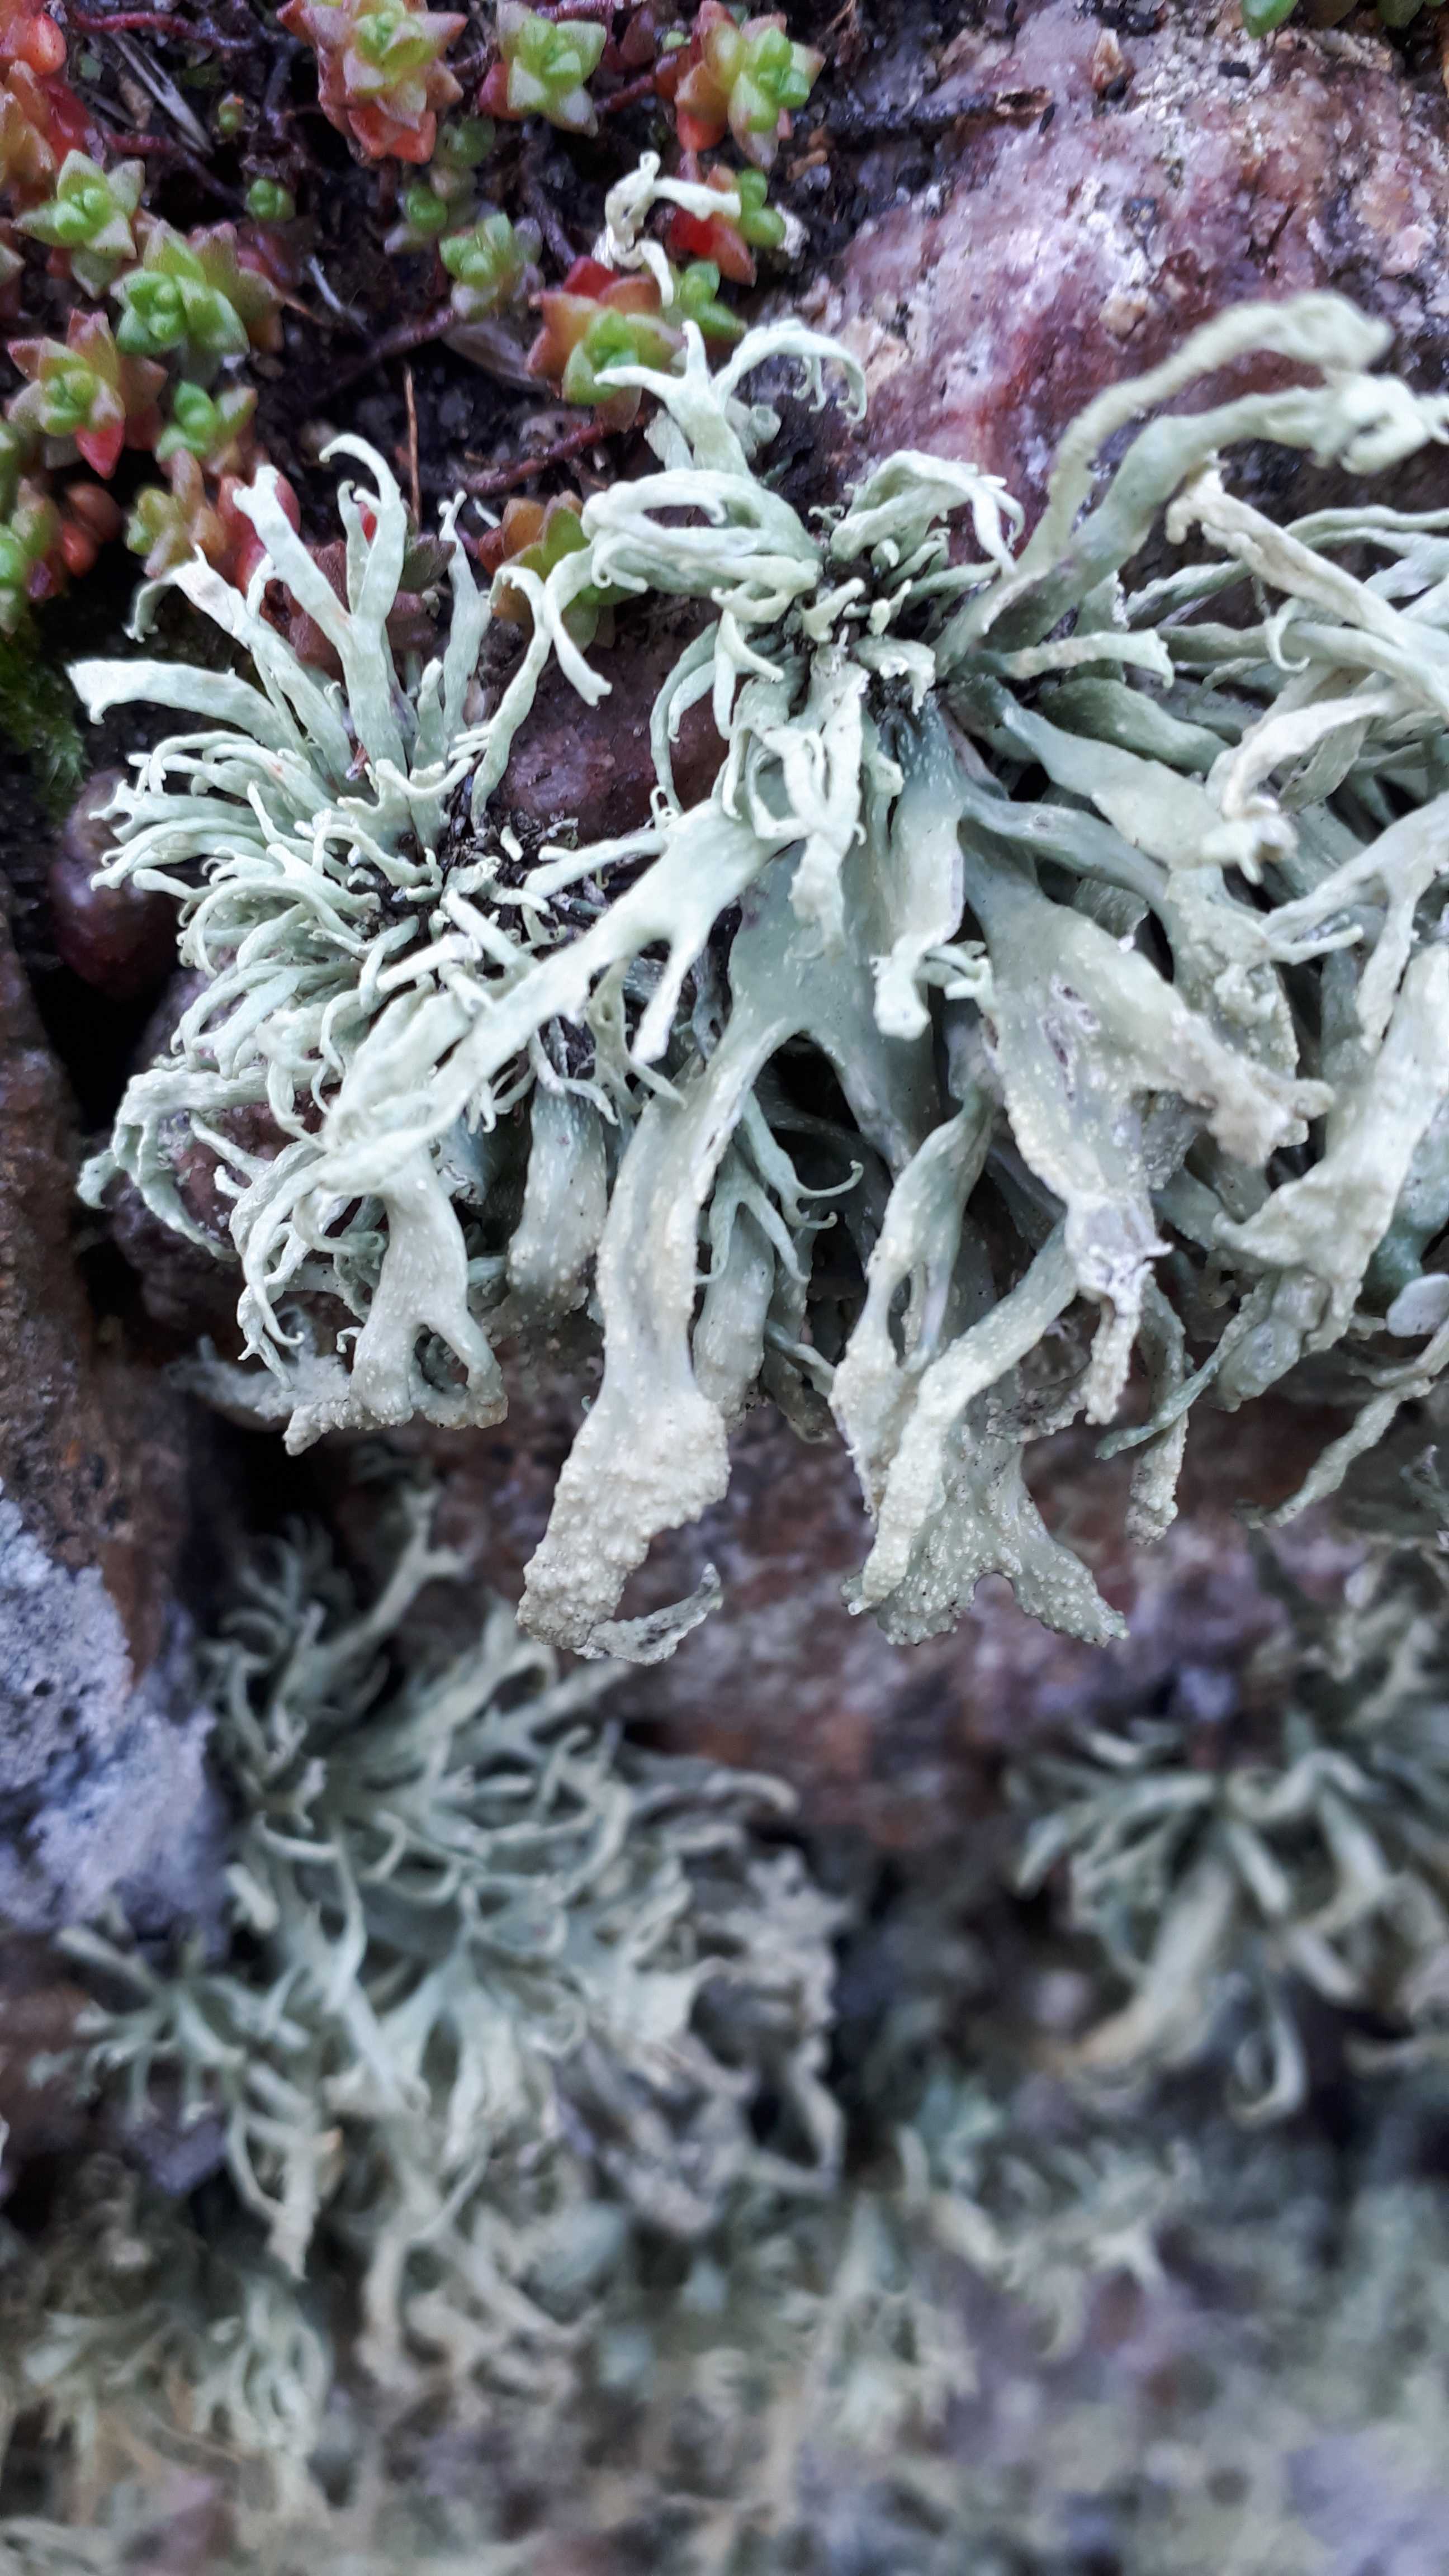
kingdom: Fungi
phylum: Ascomycota
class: Lecanoromycetes
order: Lecanorales
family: Ramalinaceae
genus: Ramalina
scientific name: Ramalina siliquosa
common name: klippe-grenlav
